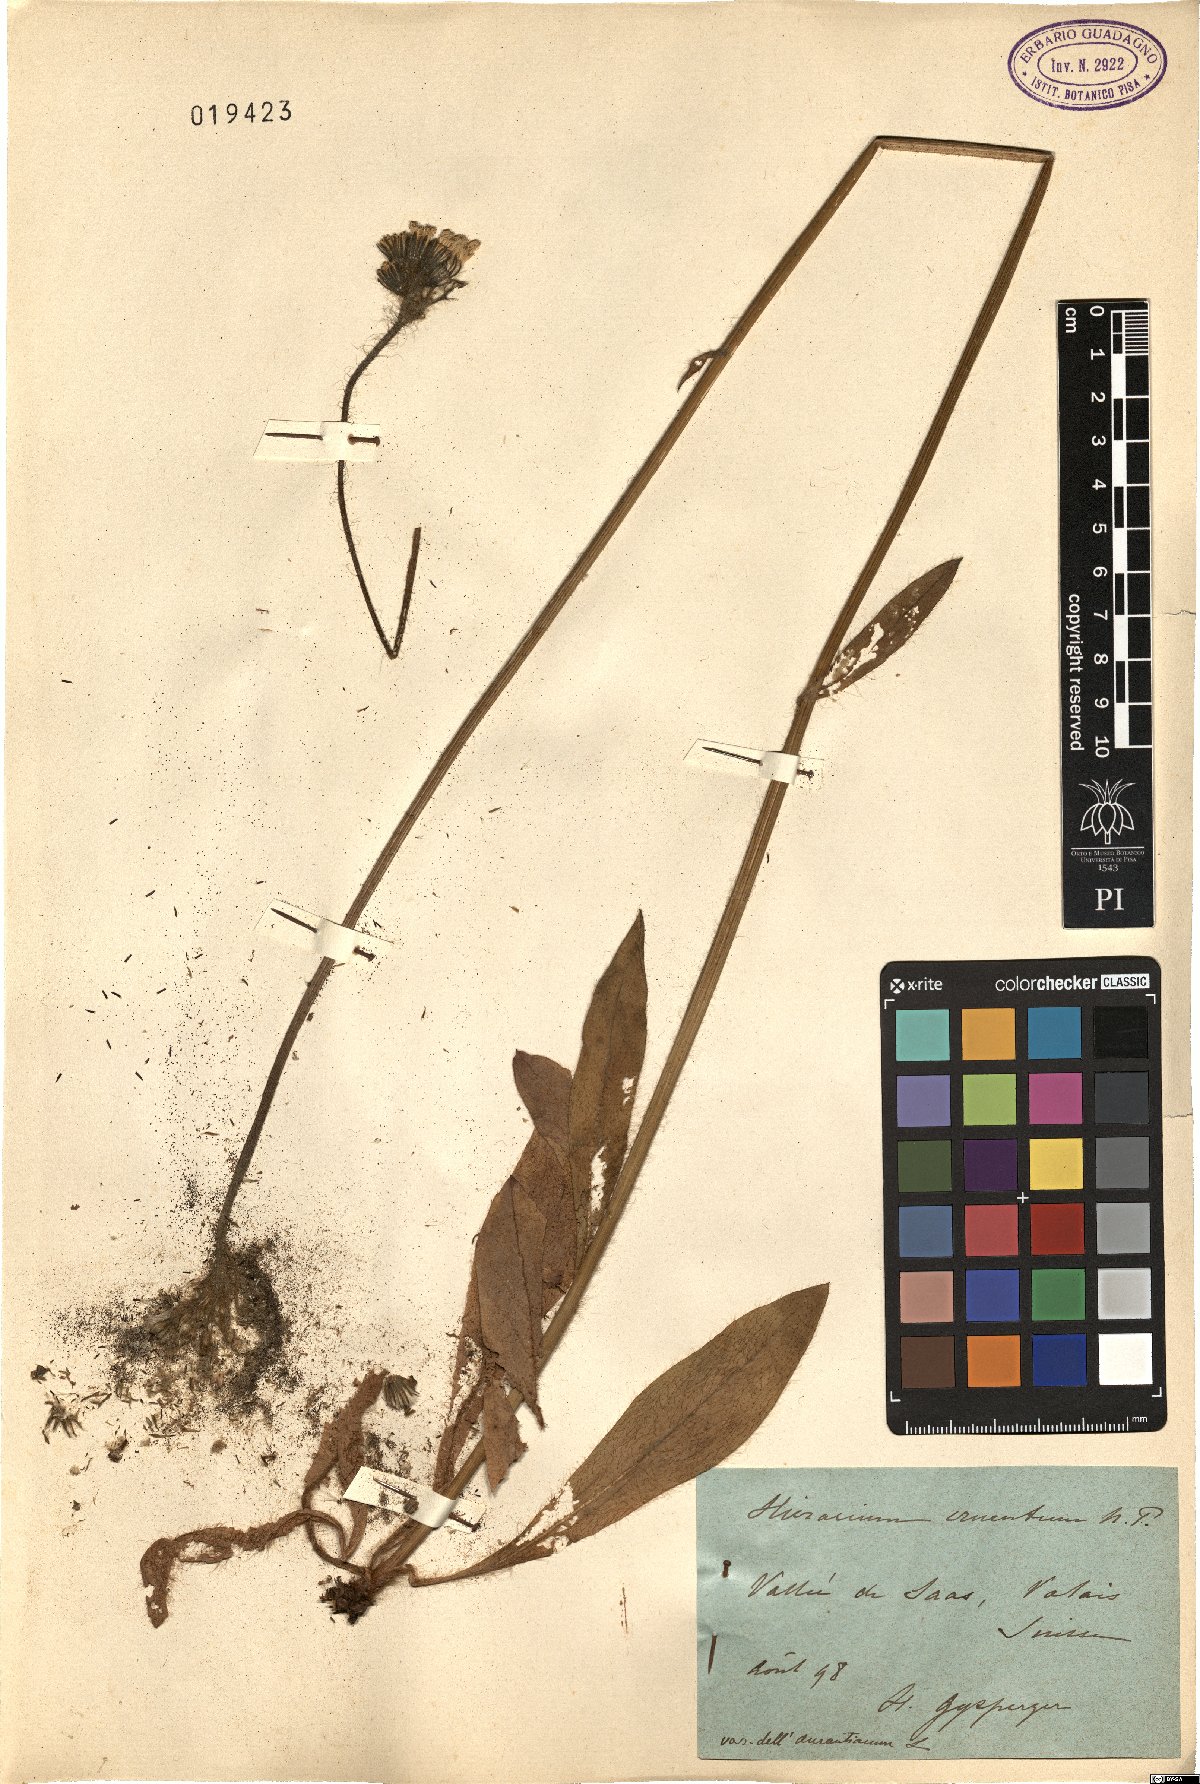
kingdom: Plantae
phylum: Tracheophyta
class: Magnoliopsida
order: Asterales
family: Asteraceae
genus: Pilosella
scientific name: Pilosella guthnikiana
